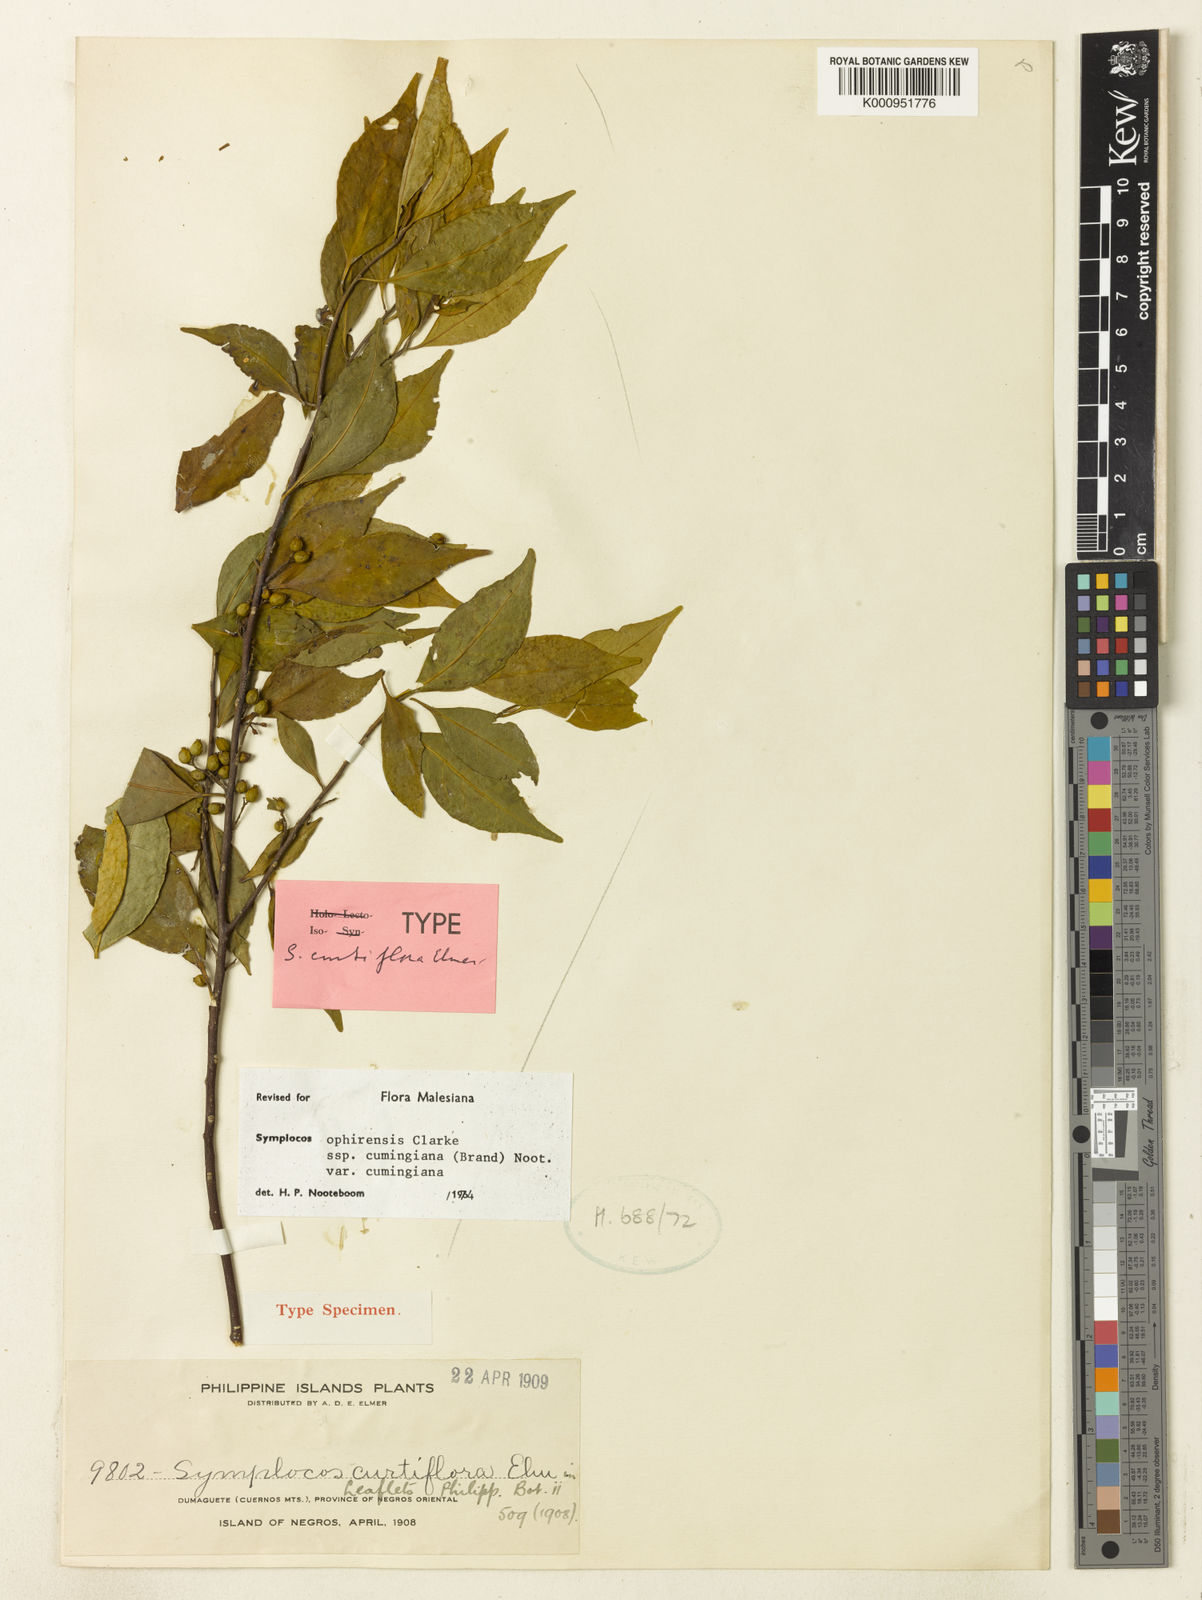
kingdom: Plantae
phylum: Tracheophyta
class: Magnoliopsida
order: Ericales
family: Symplocaceae
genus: Symplocos
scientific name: Symplocos ophirensis
